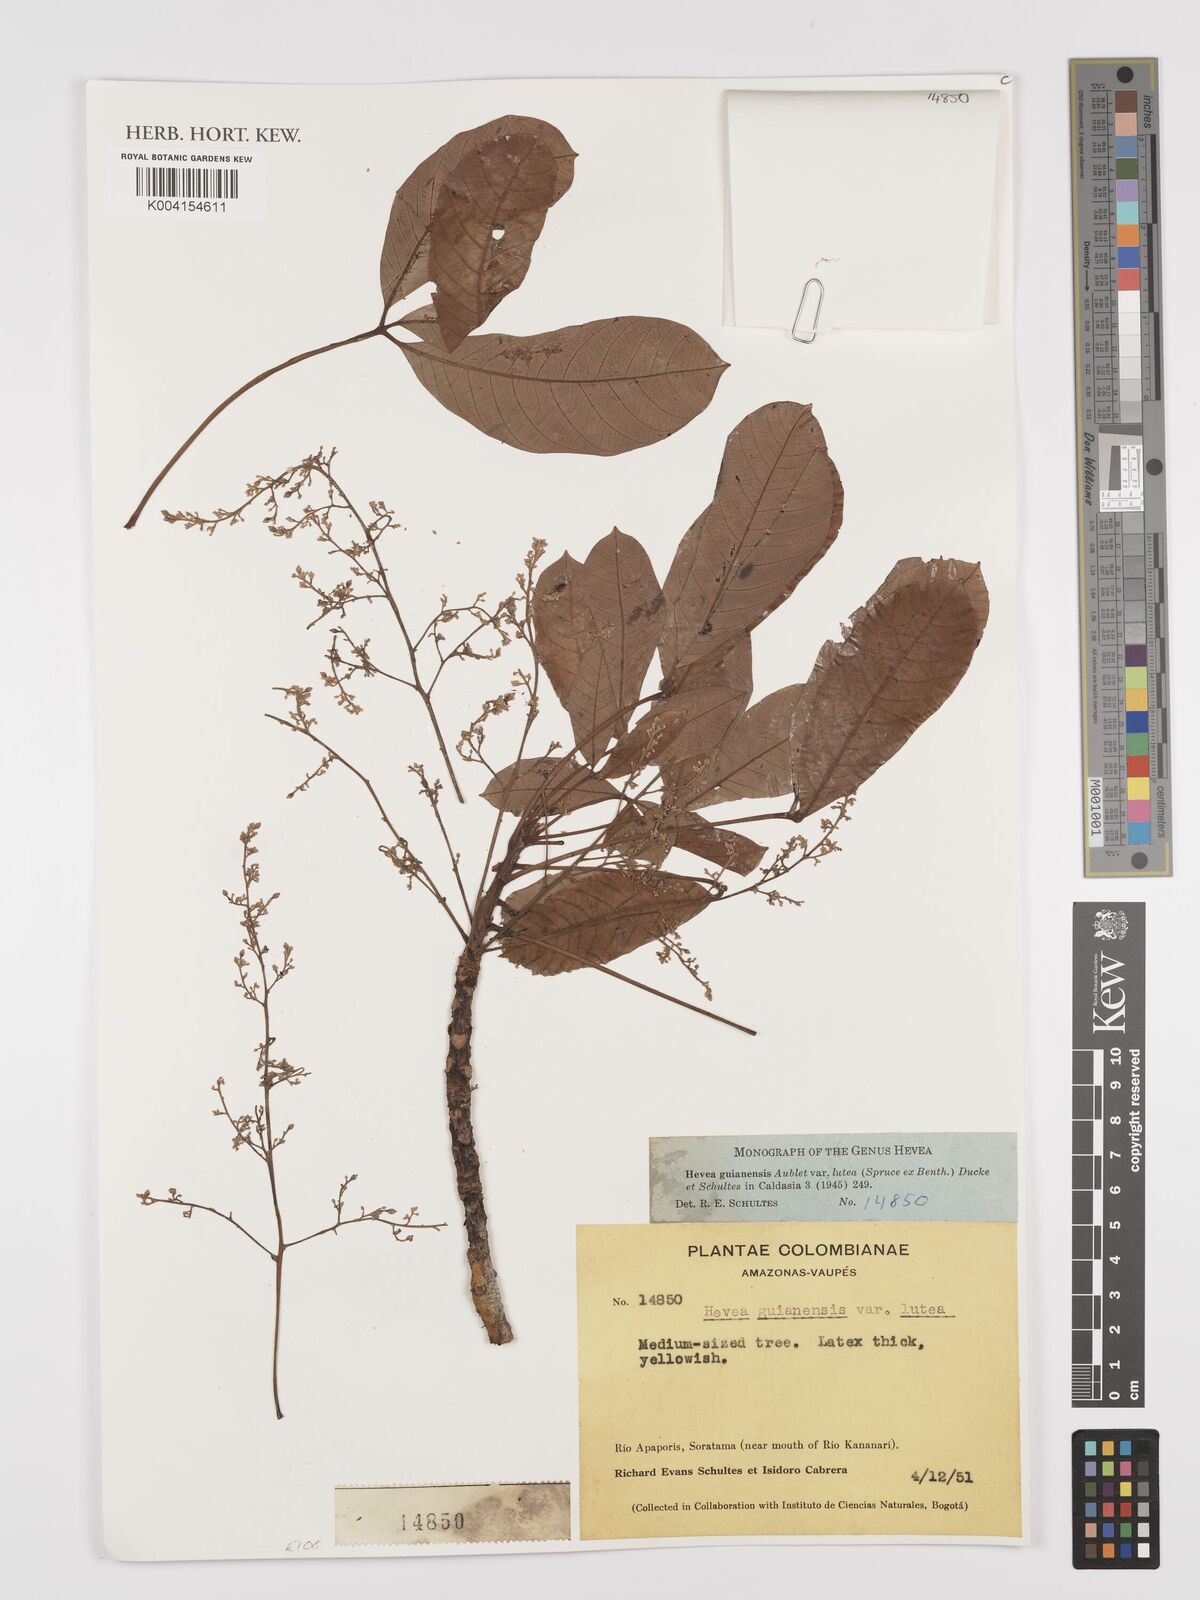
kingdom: Plantae
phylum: Tracheophyta
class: Magnoliopsida
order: Malpighiales
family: Euphorbiaceae
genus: Hevea
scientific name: Hevea guianensis
